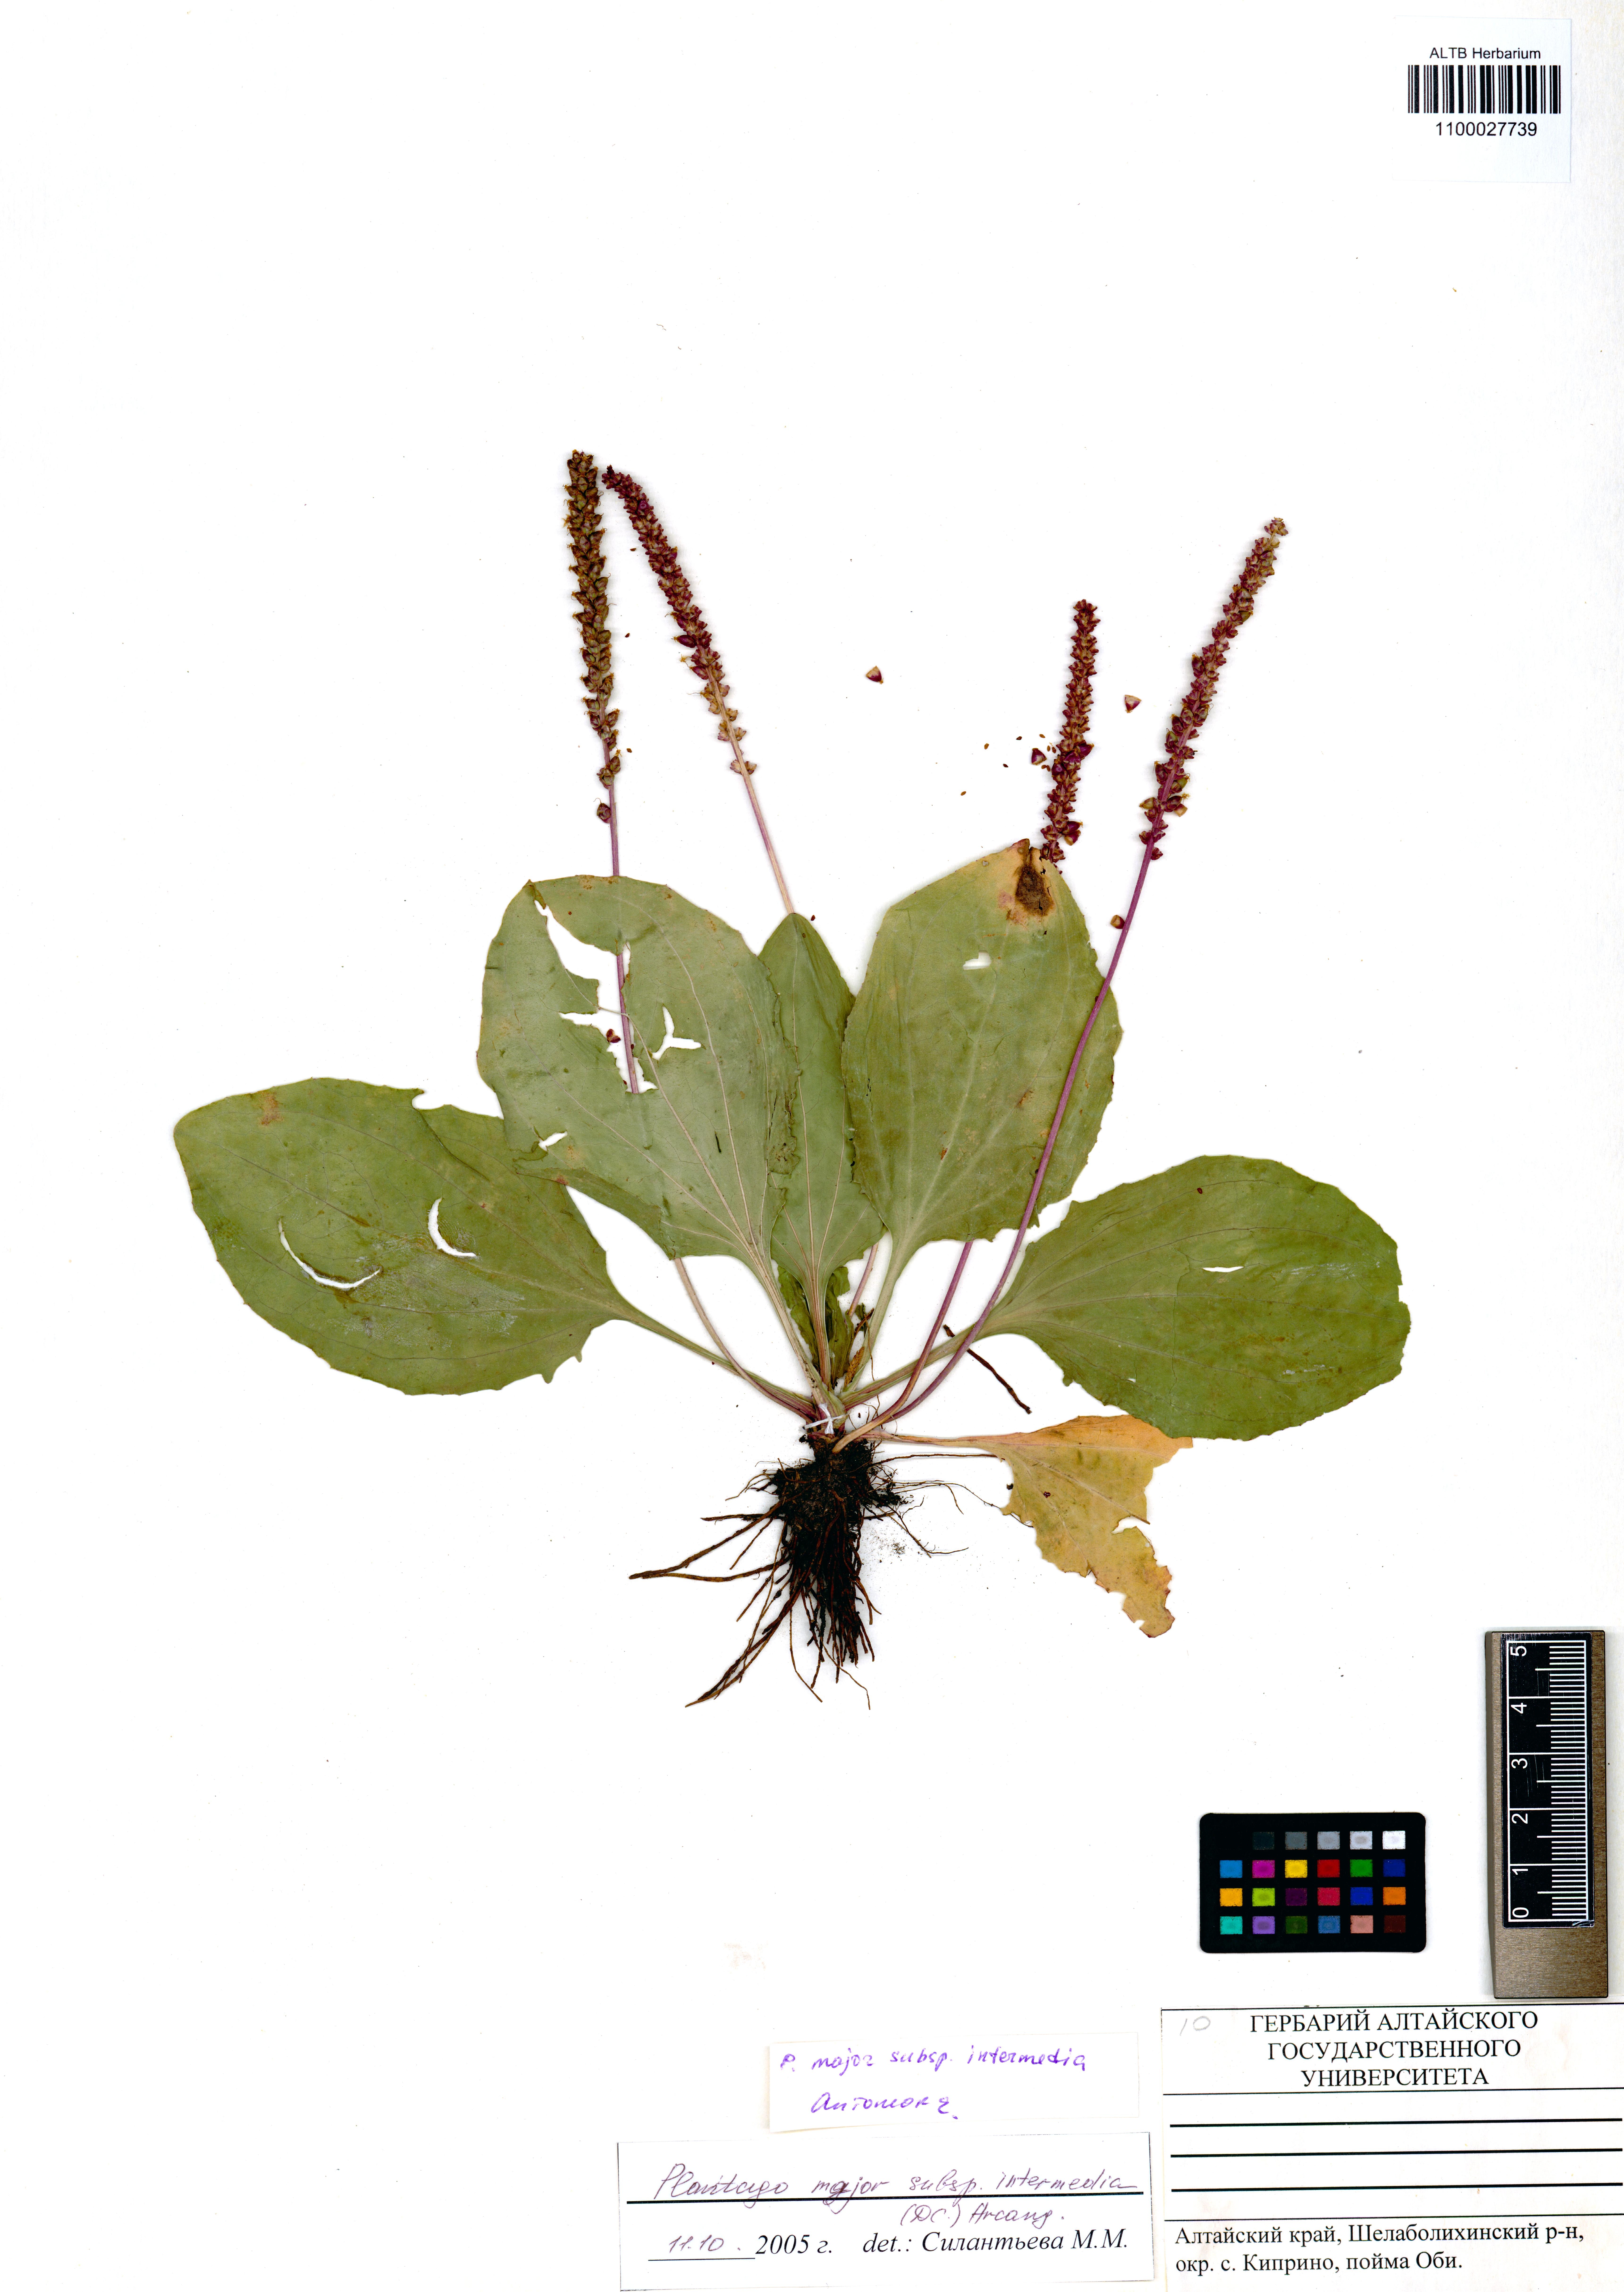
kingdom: Plantae
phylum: Tracheophyta
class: Magnoliopsida
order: Lamiales
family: Plantaginaceae
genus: Plantago
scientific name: Plantago uliginosa
